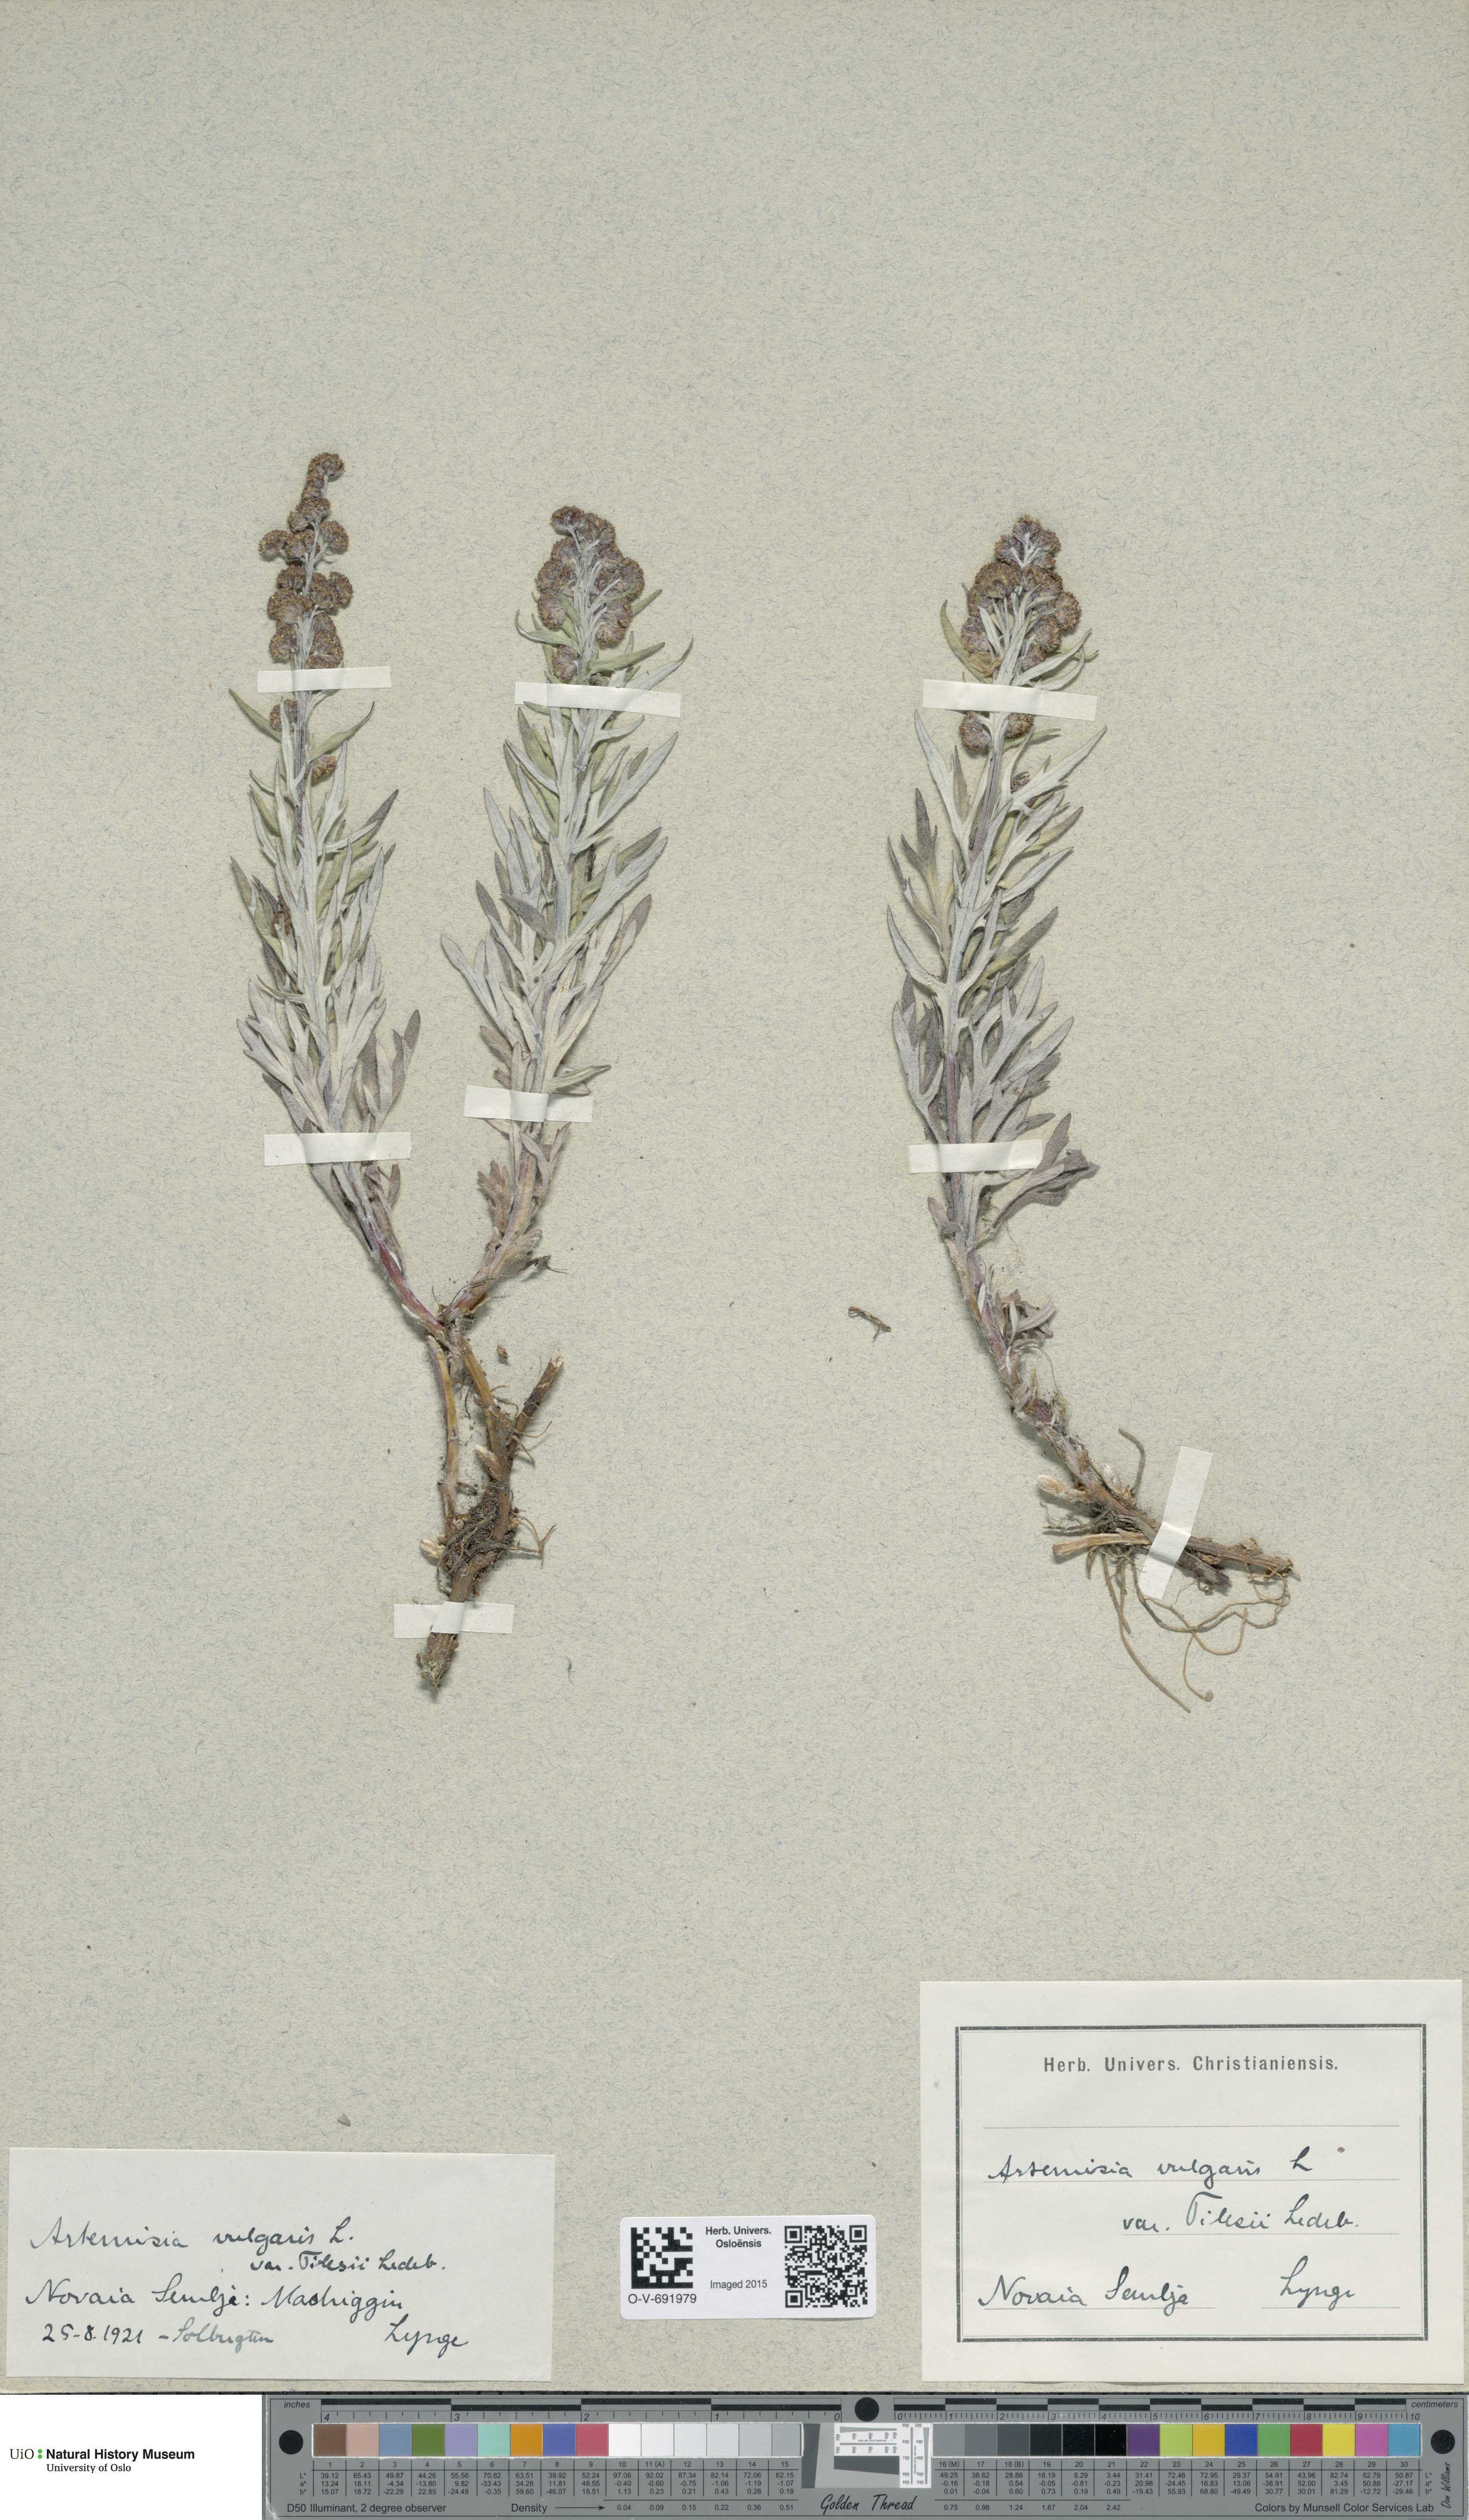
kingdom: Plantae
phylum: Tracheophyta
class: Magnoliopsida
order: Asterales
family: Asteraceae
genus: Artemisia
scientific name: Artemisia tilesii
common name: Aleutian mugwort
